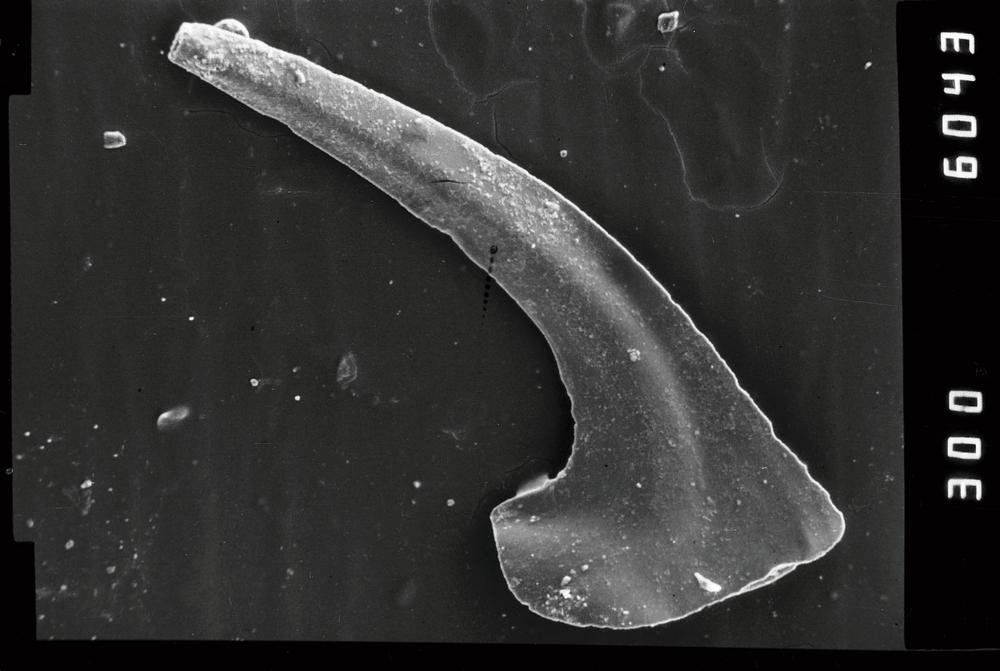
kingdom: Animalia
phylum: Chordata
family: Drepanoistodontidae
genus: Drepanoistodus
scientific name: Drepanoistodus Oistodus forceps
